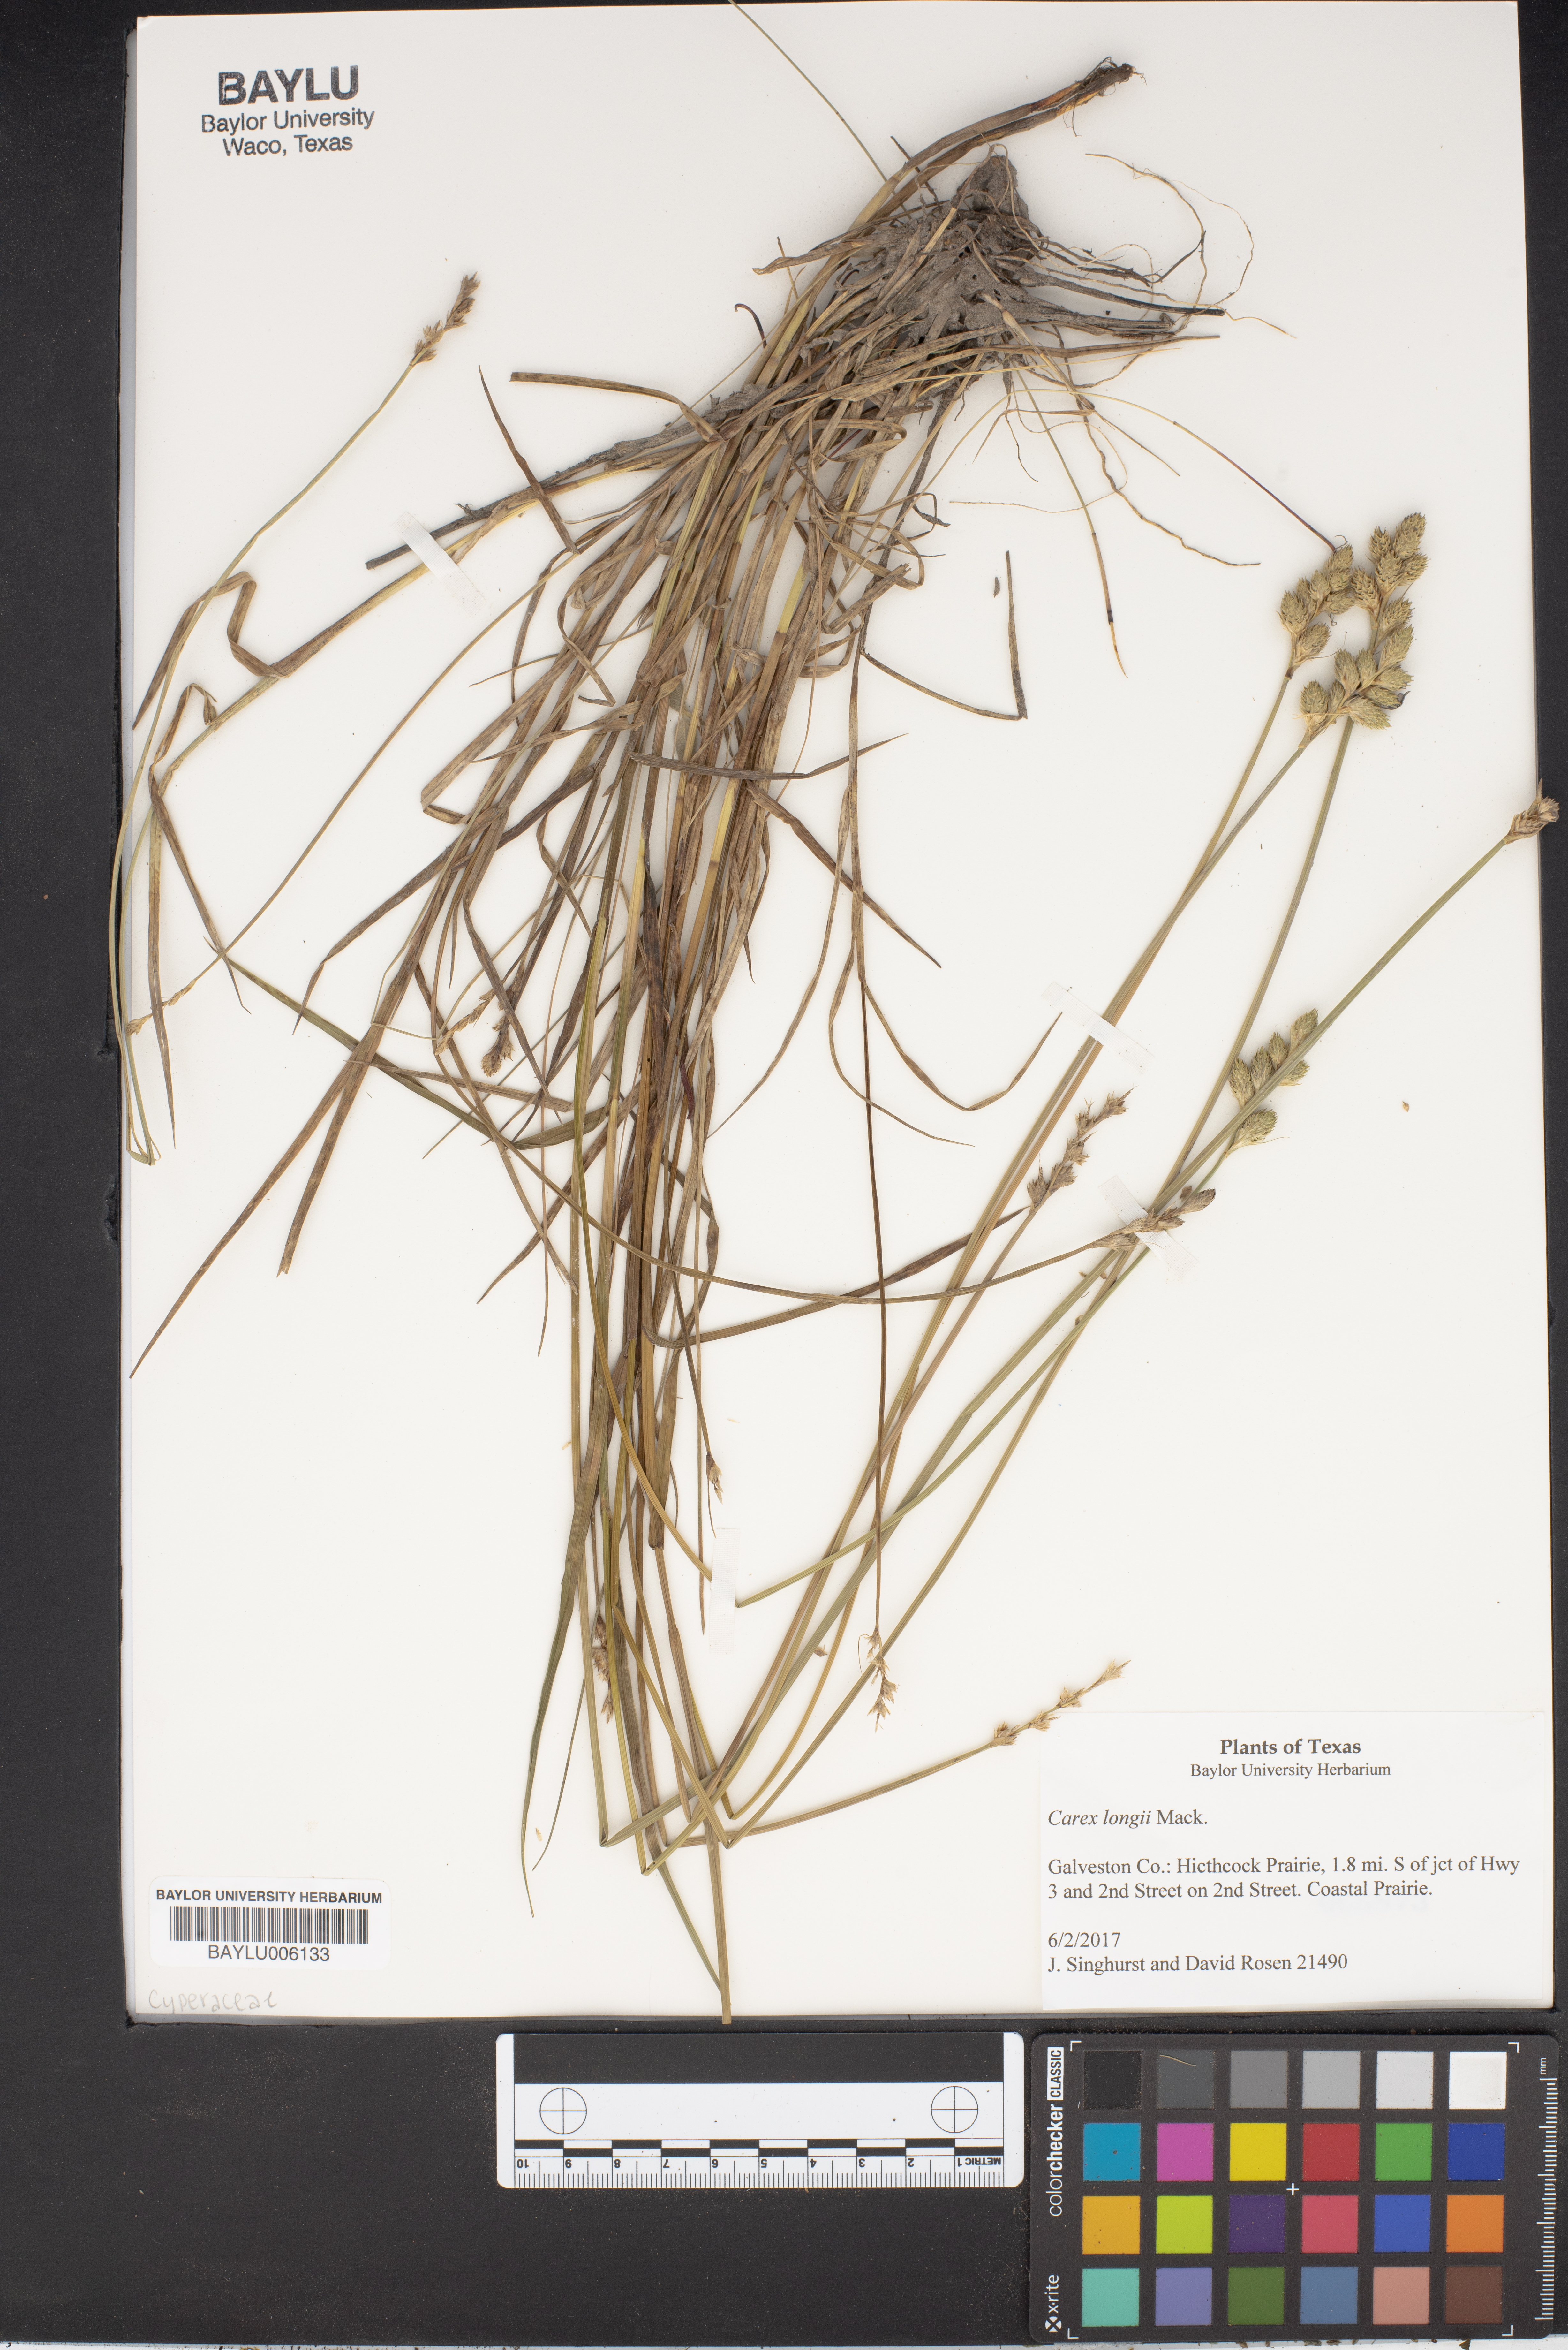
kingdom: Plantae
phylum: Tracheophyta
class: Liliopsida
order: Poales
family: Cyperaceae
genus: Carex
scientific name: Carex longii
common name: Long's sedge
